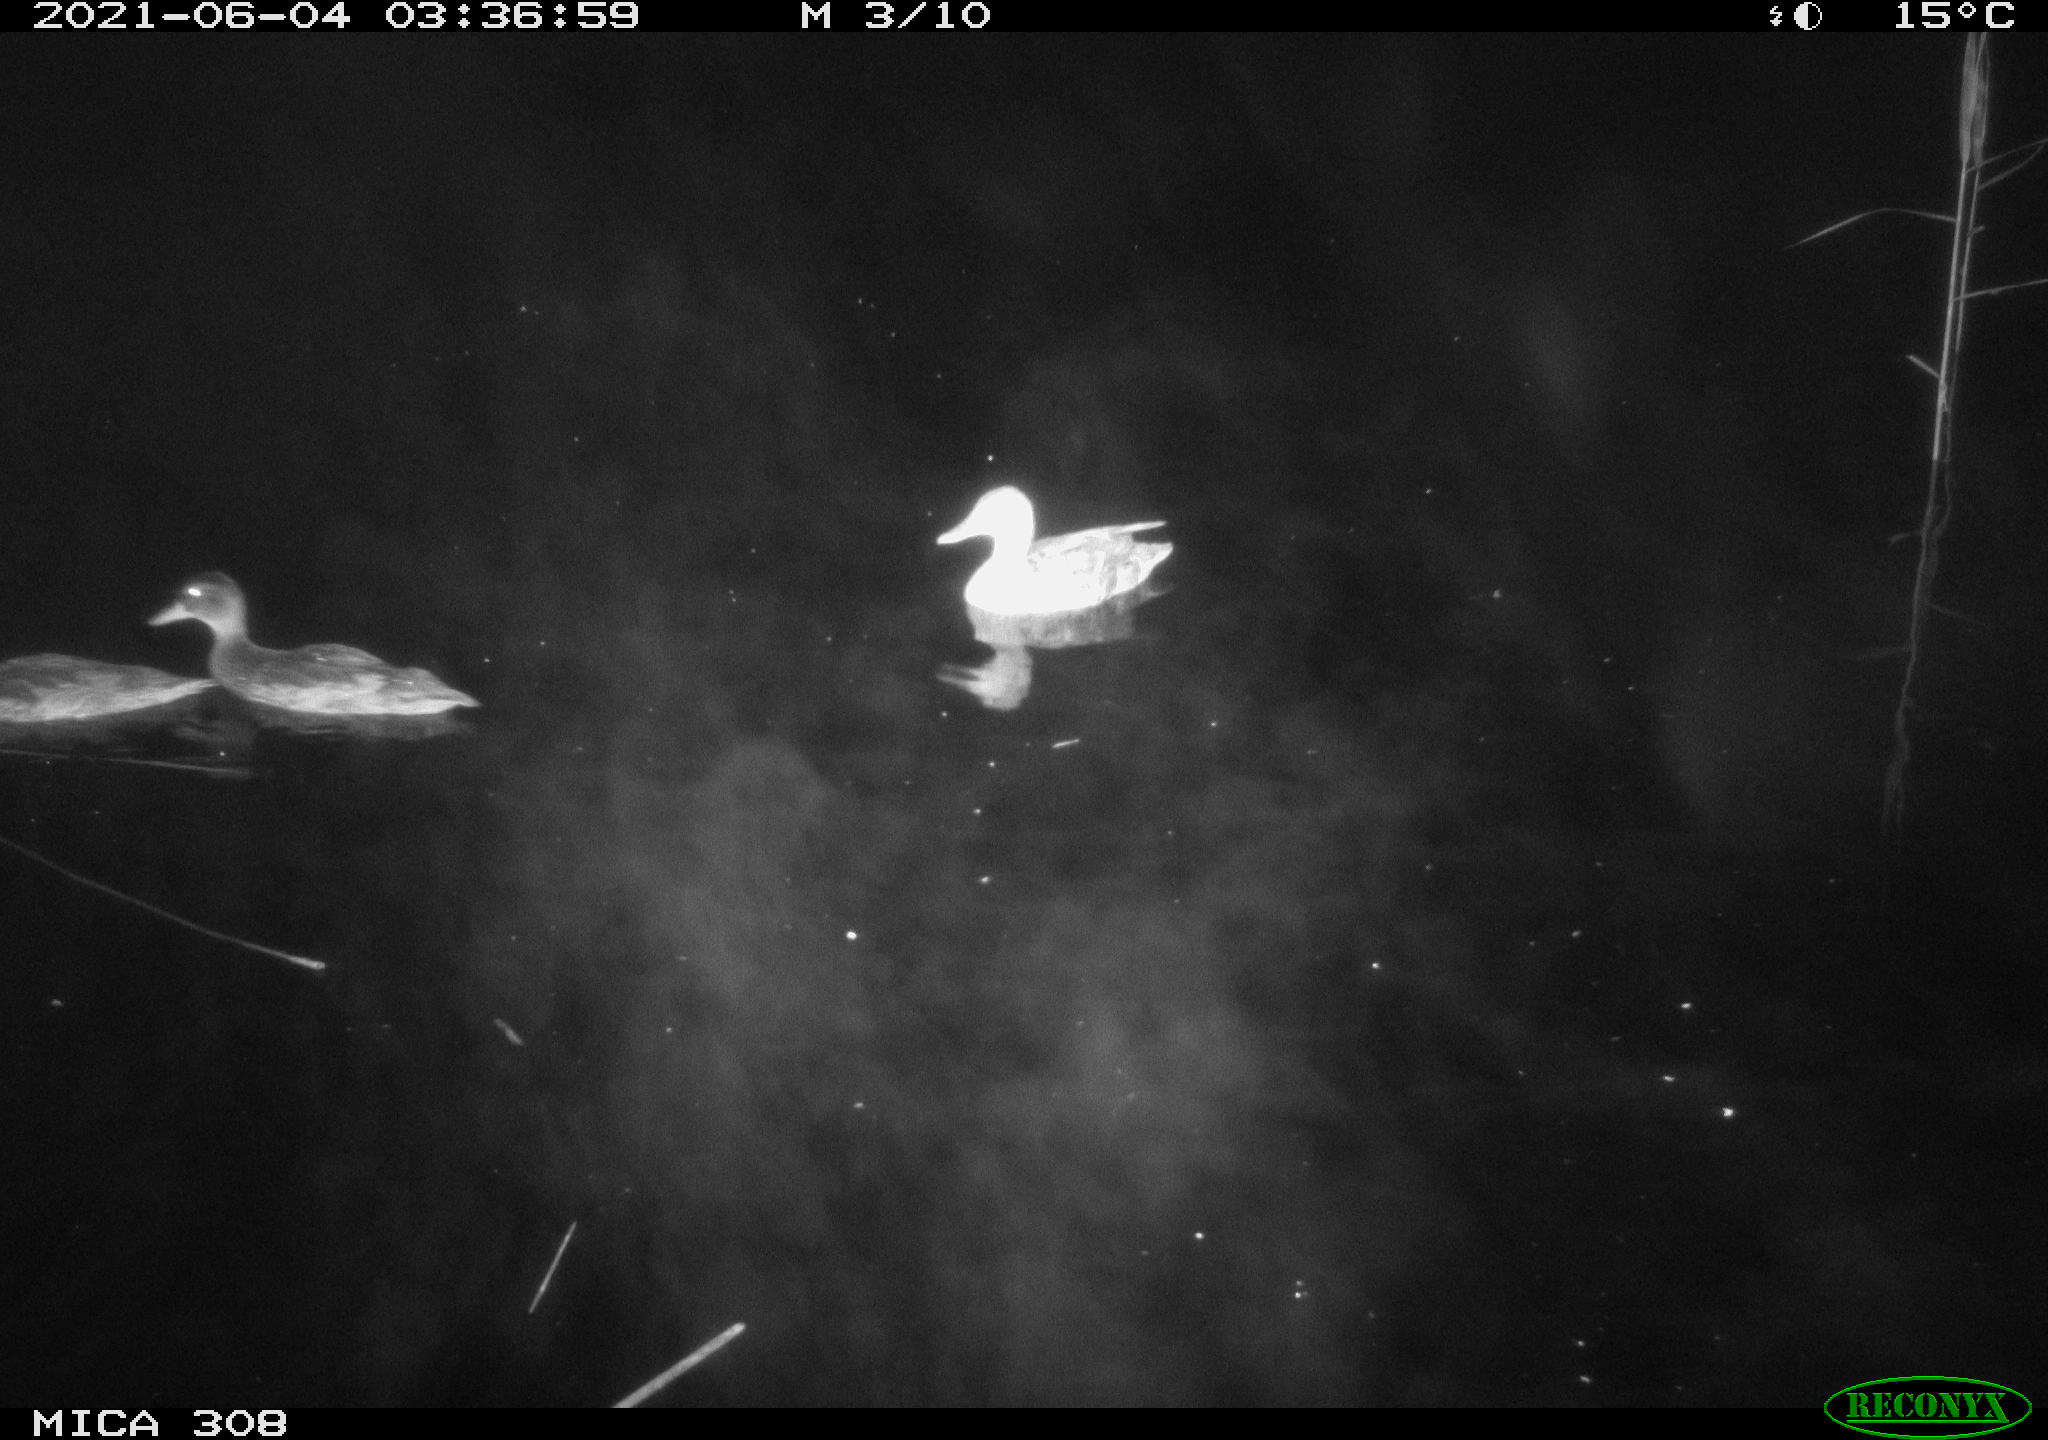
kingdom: Animalia
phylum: Chordata
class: Aves
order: Anseriformes
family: Anatidae
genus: Anas
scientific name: Anas platyrhynchos
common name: Mallard
